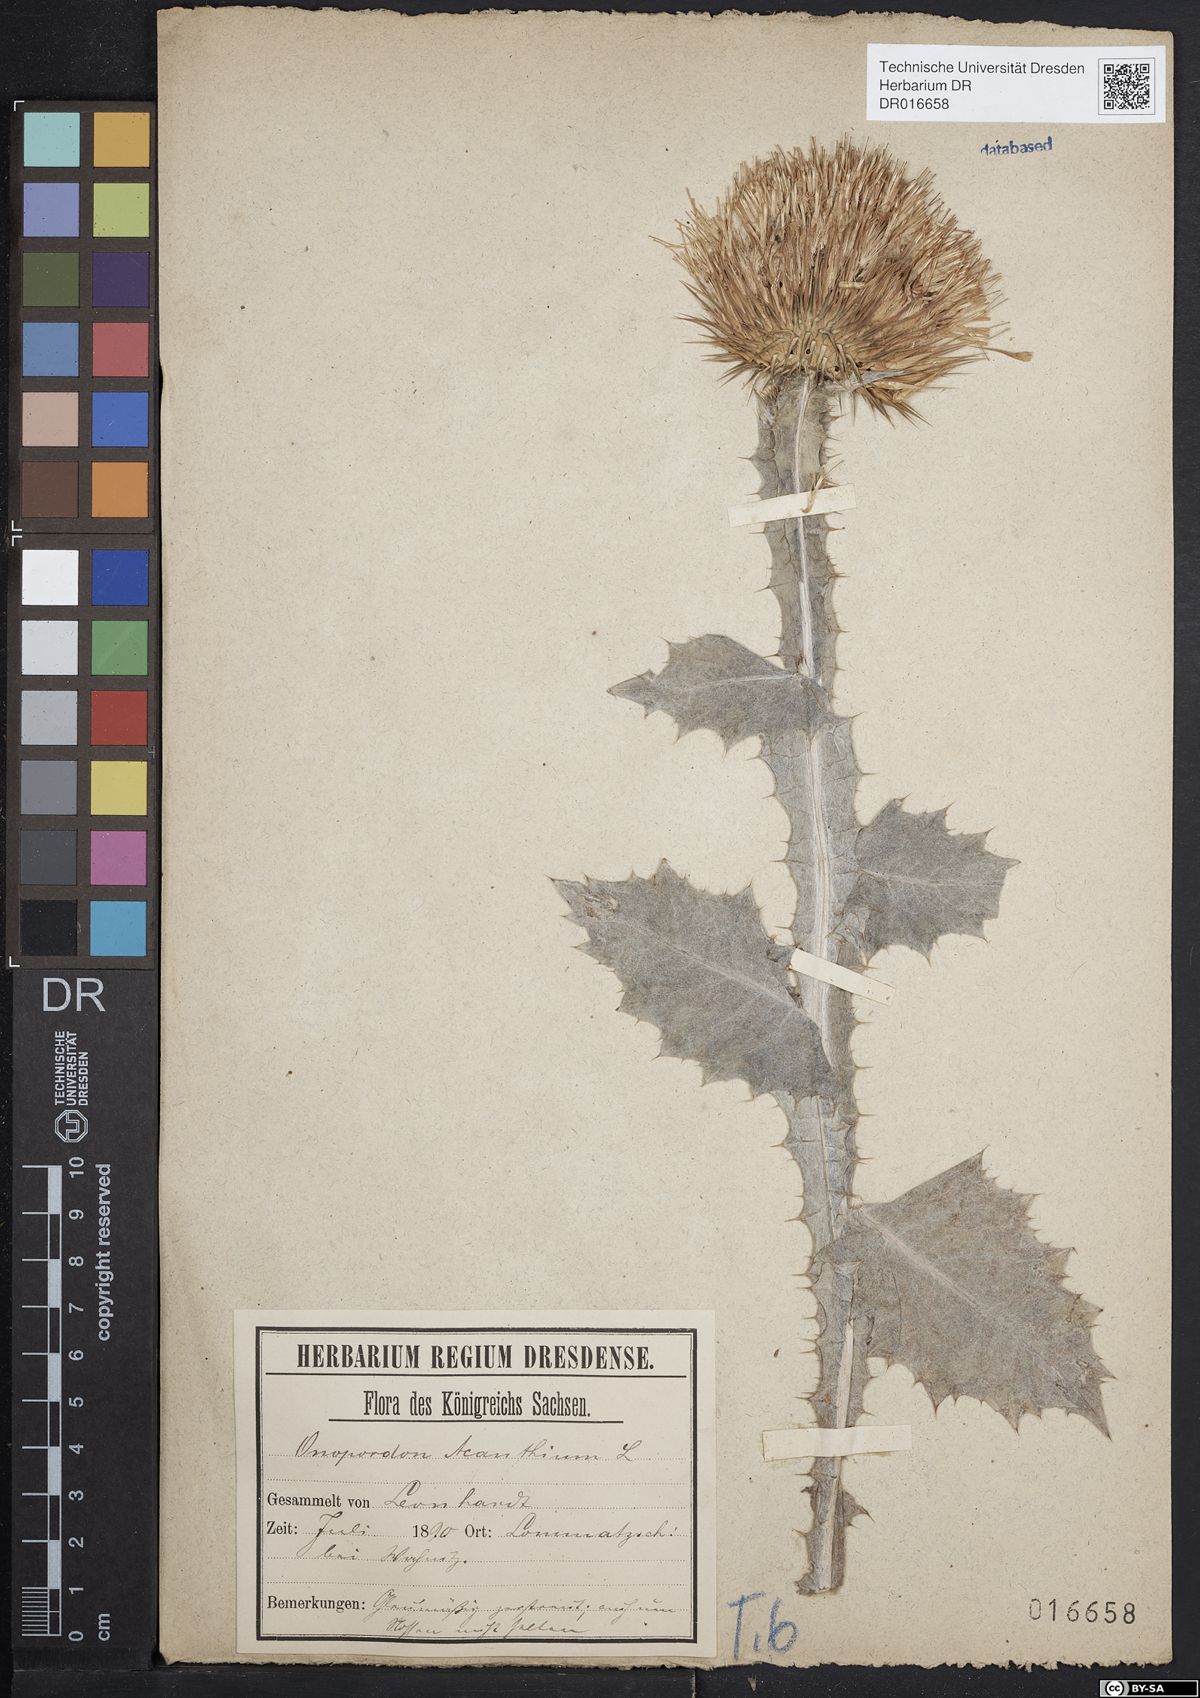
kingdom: Plantae
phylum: Tracheophyta
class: Magnoliopsida
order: Asterales
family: Asteraceae
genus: Onopordum
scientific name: Onopordum acanthium
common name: Scotch thistle
